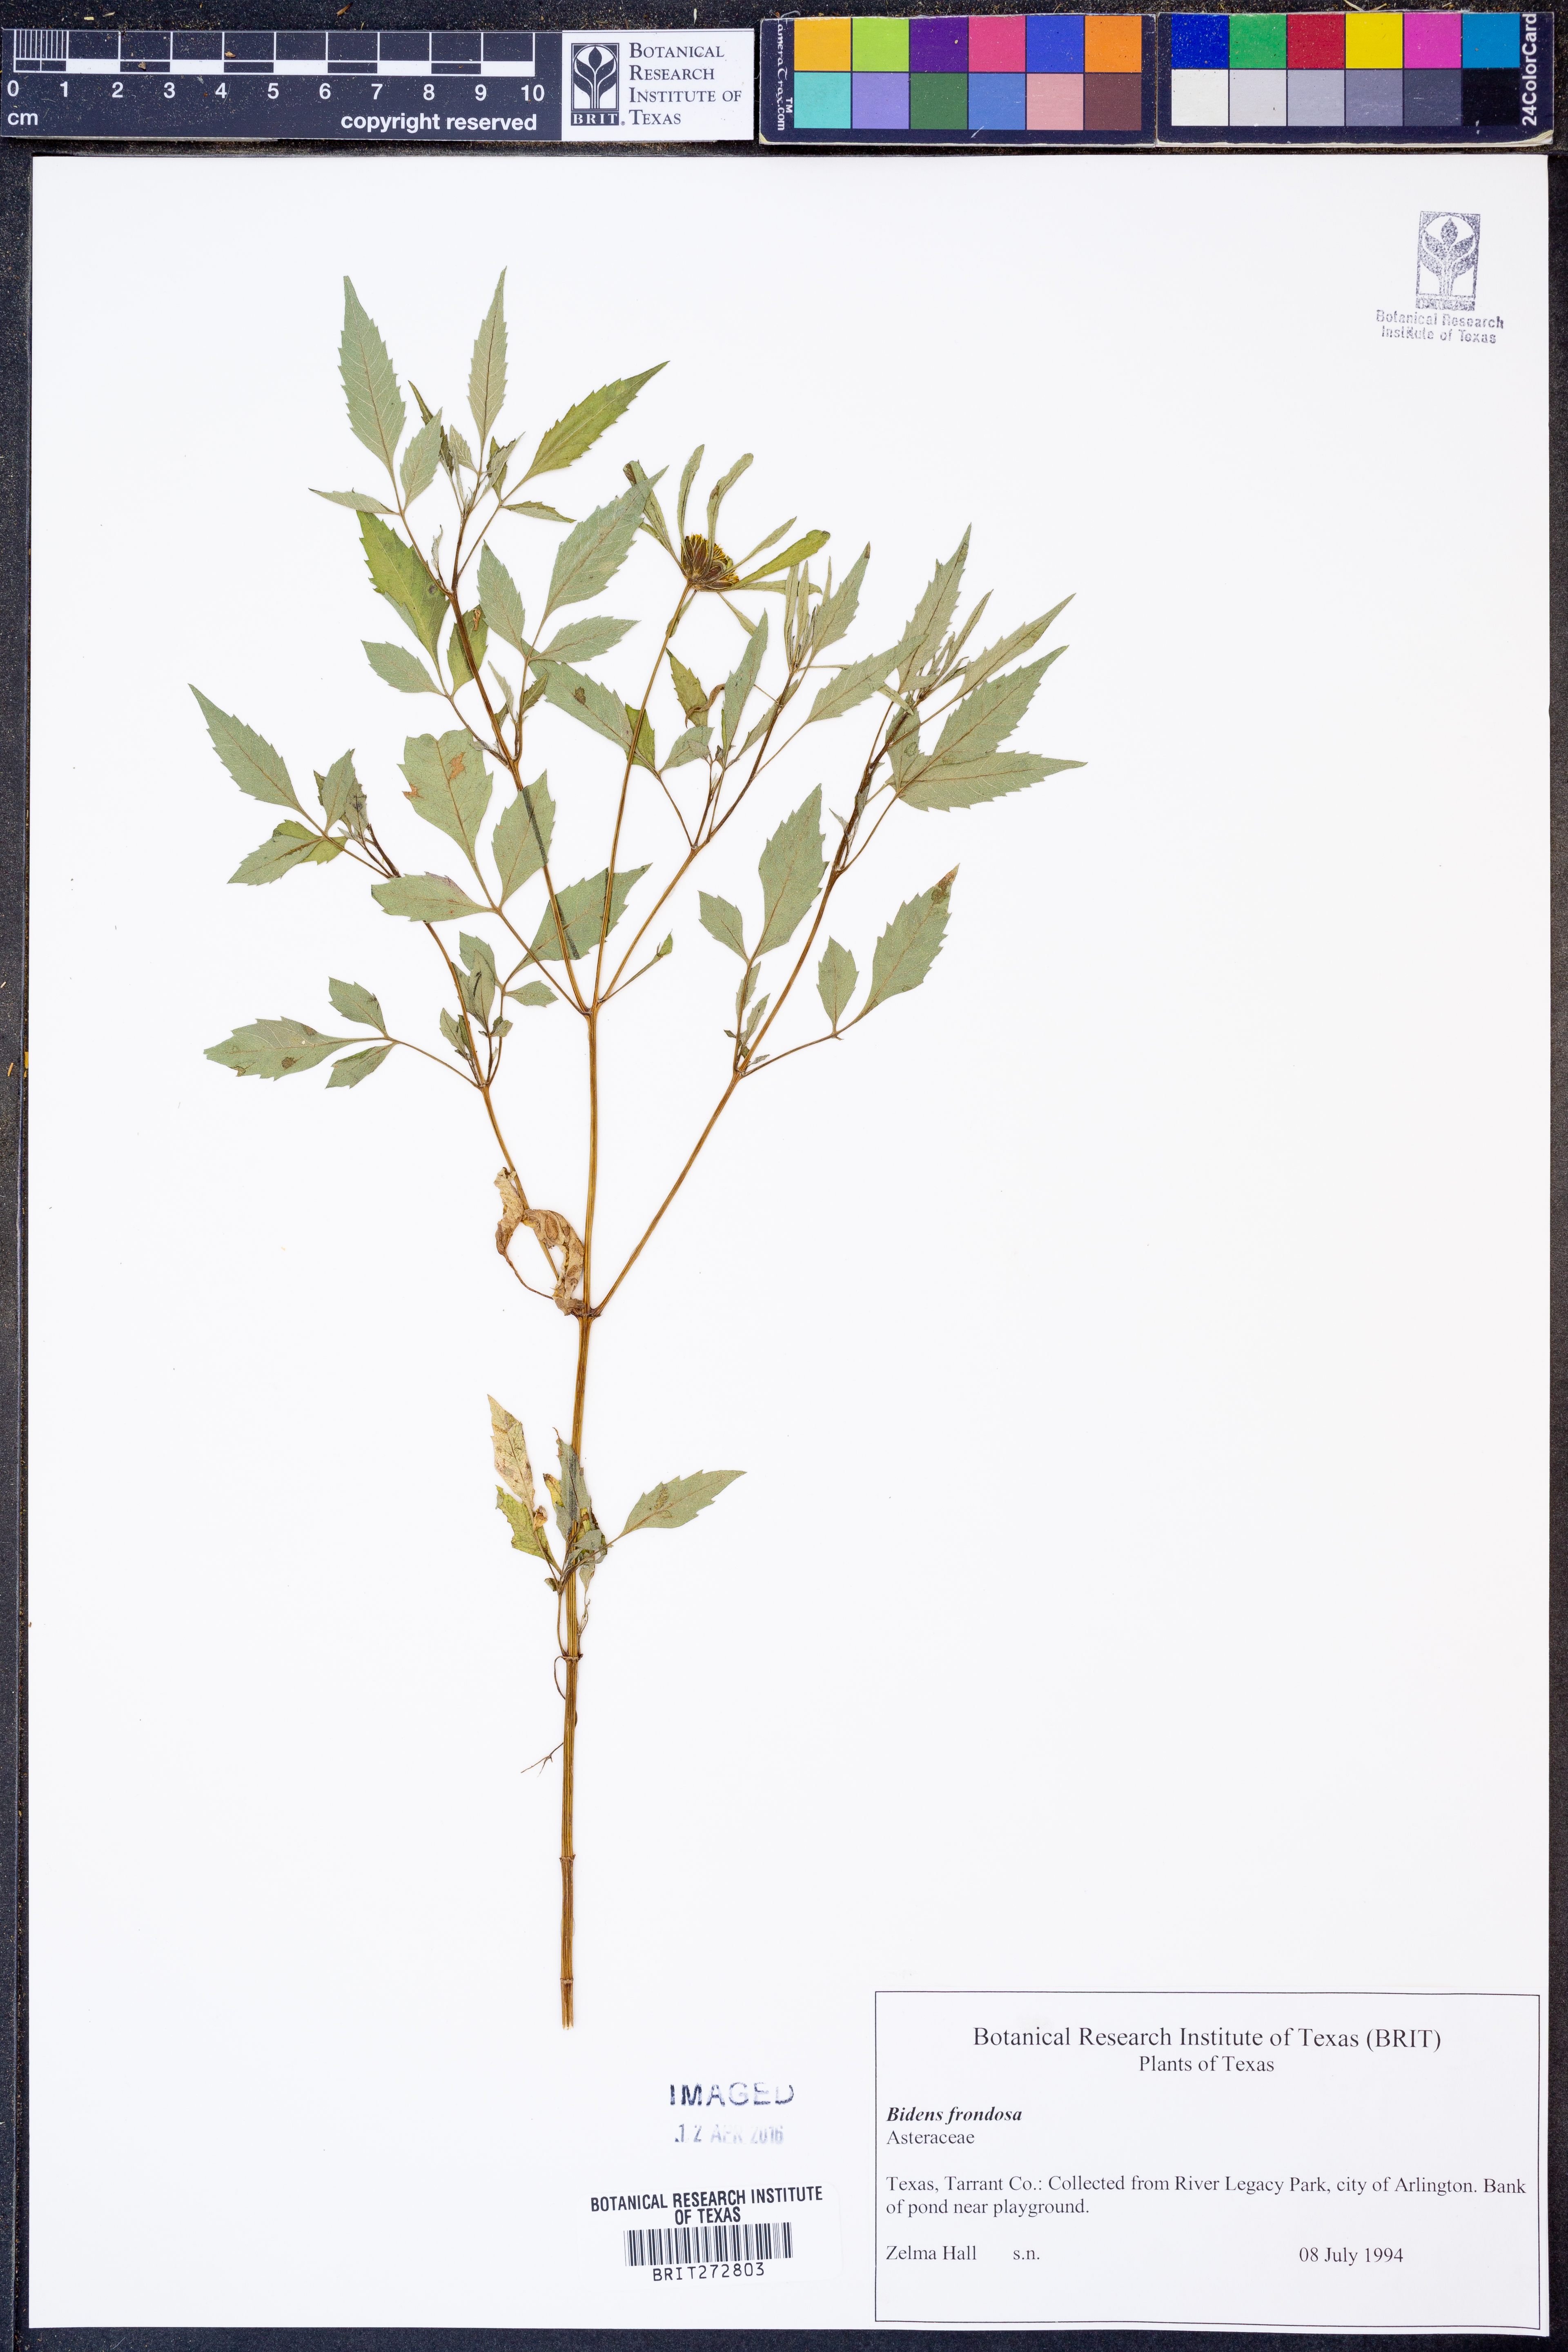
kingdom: Plantae
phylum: Tracheophyta
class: Magnoliopsida
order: Asterales
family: Asteraceae
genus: Bidens
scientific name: Bidens frondosa
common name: Beggarticks
